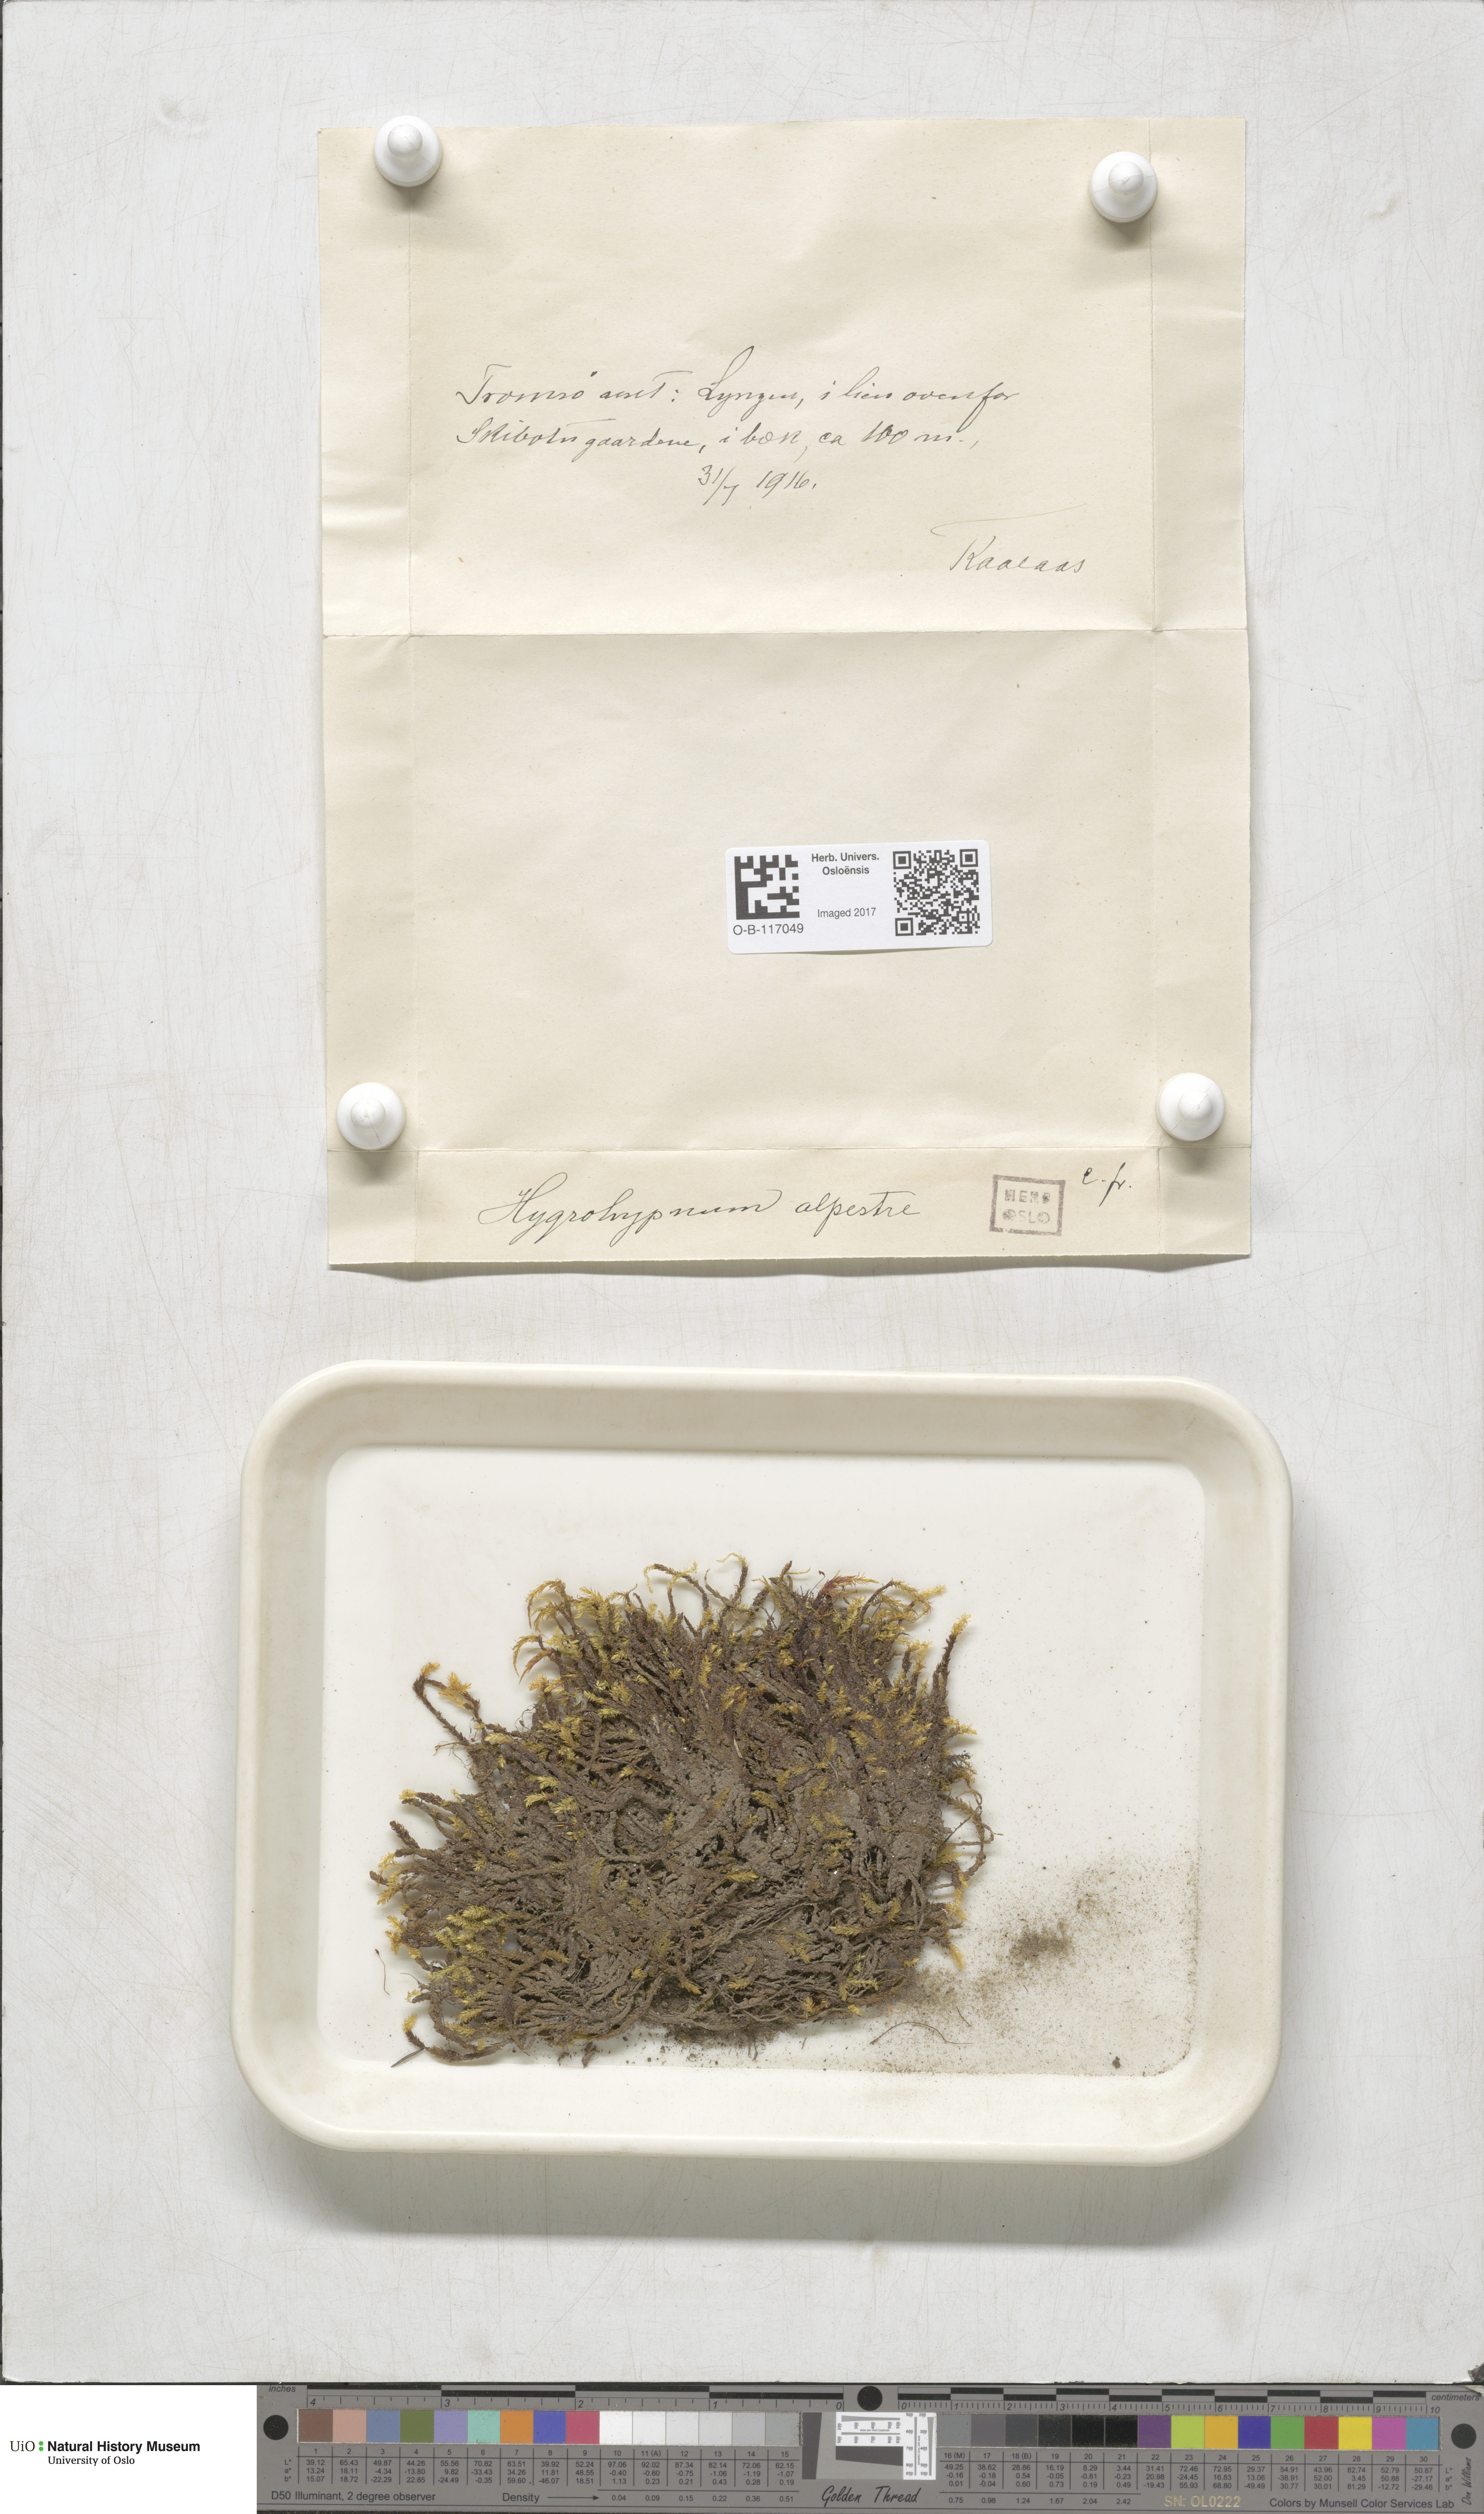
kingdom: Plantae
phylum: Bryophyta
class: Bryopsida
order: Hypnales
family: Amblystegiaceae
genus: Platyhypnum
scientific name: Platyhypnum alpestre
